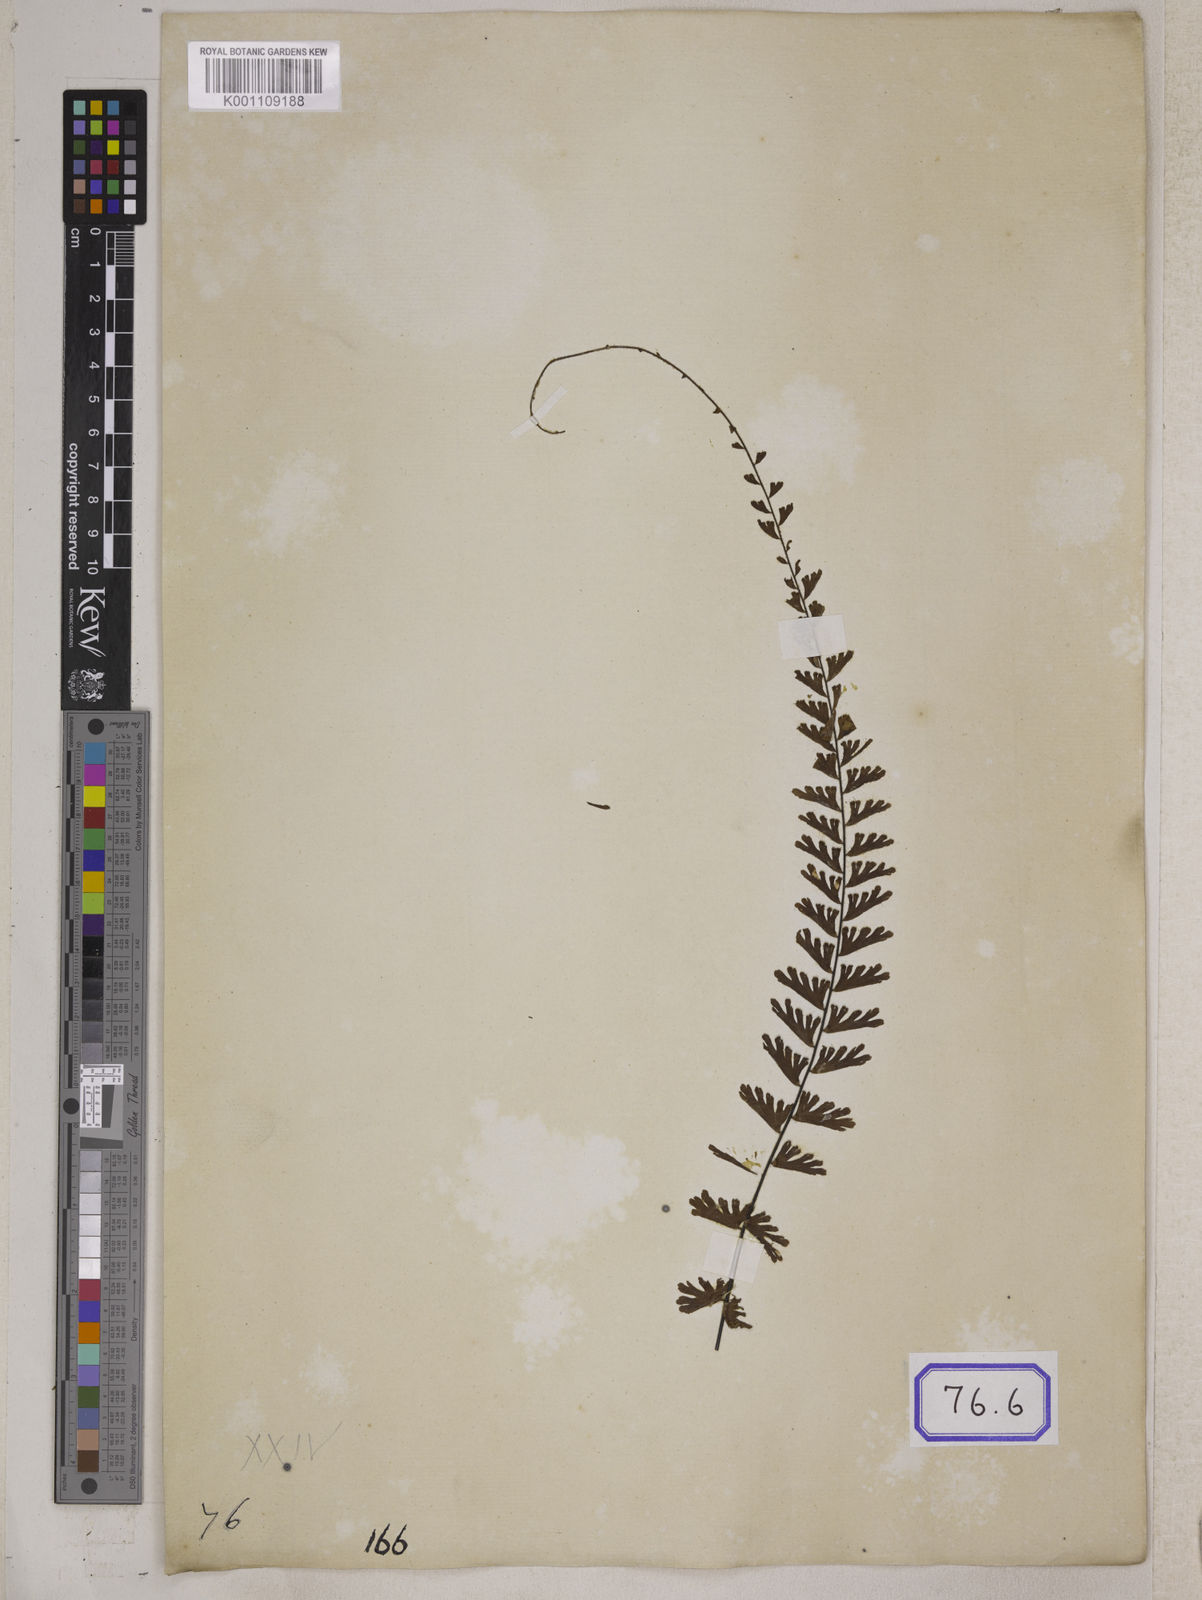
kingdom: Plantae
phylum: Tracheophyta
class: Polypodiopsida
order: Polypodiales
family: Pteridaceae
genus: Adiantum
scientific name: Adiantum caudatum
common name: Tailed maidenhair
